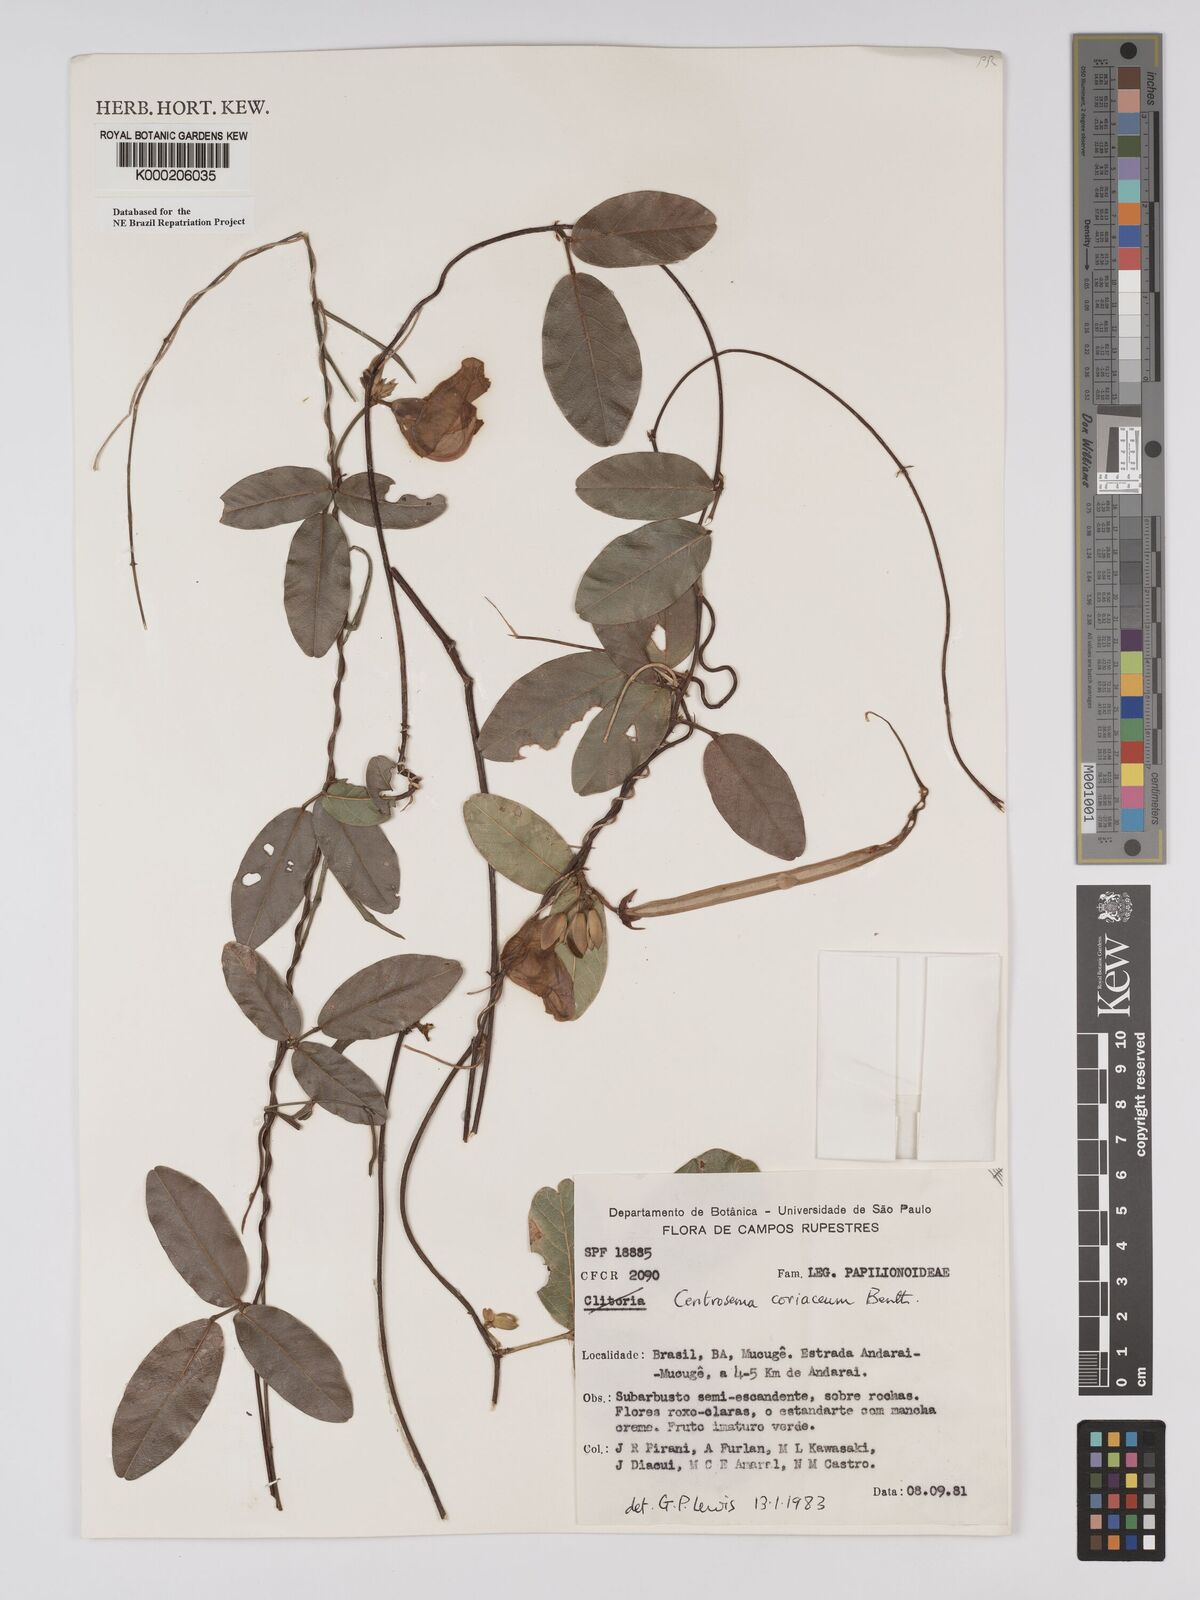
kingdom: Plantae
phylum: Tracheophyta
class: Magnoliopsida
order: Fabales
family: Fabaceae
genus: Centrosema
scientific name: Centrosema coriaceum
